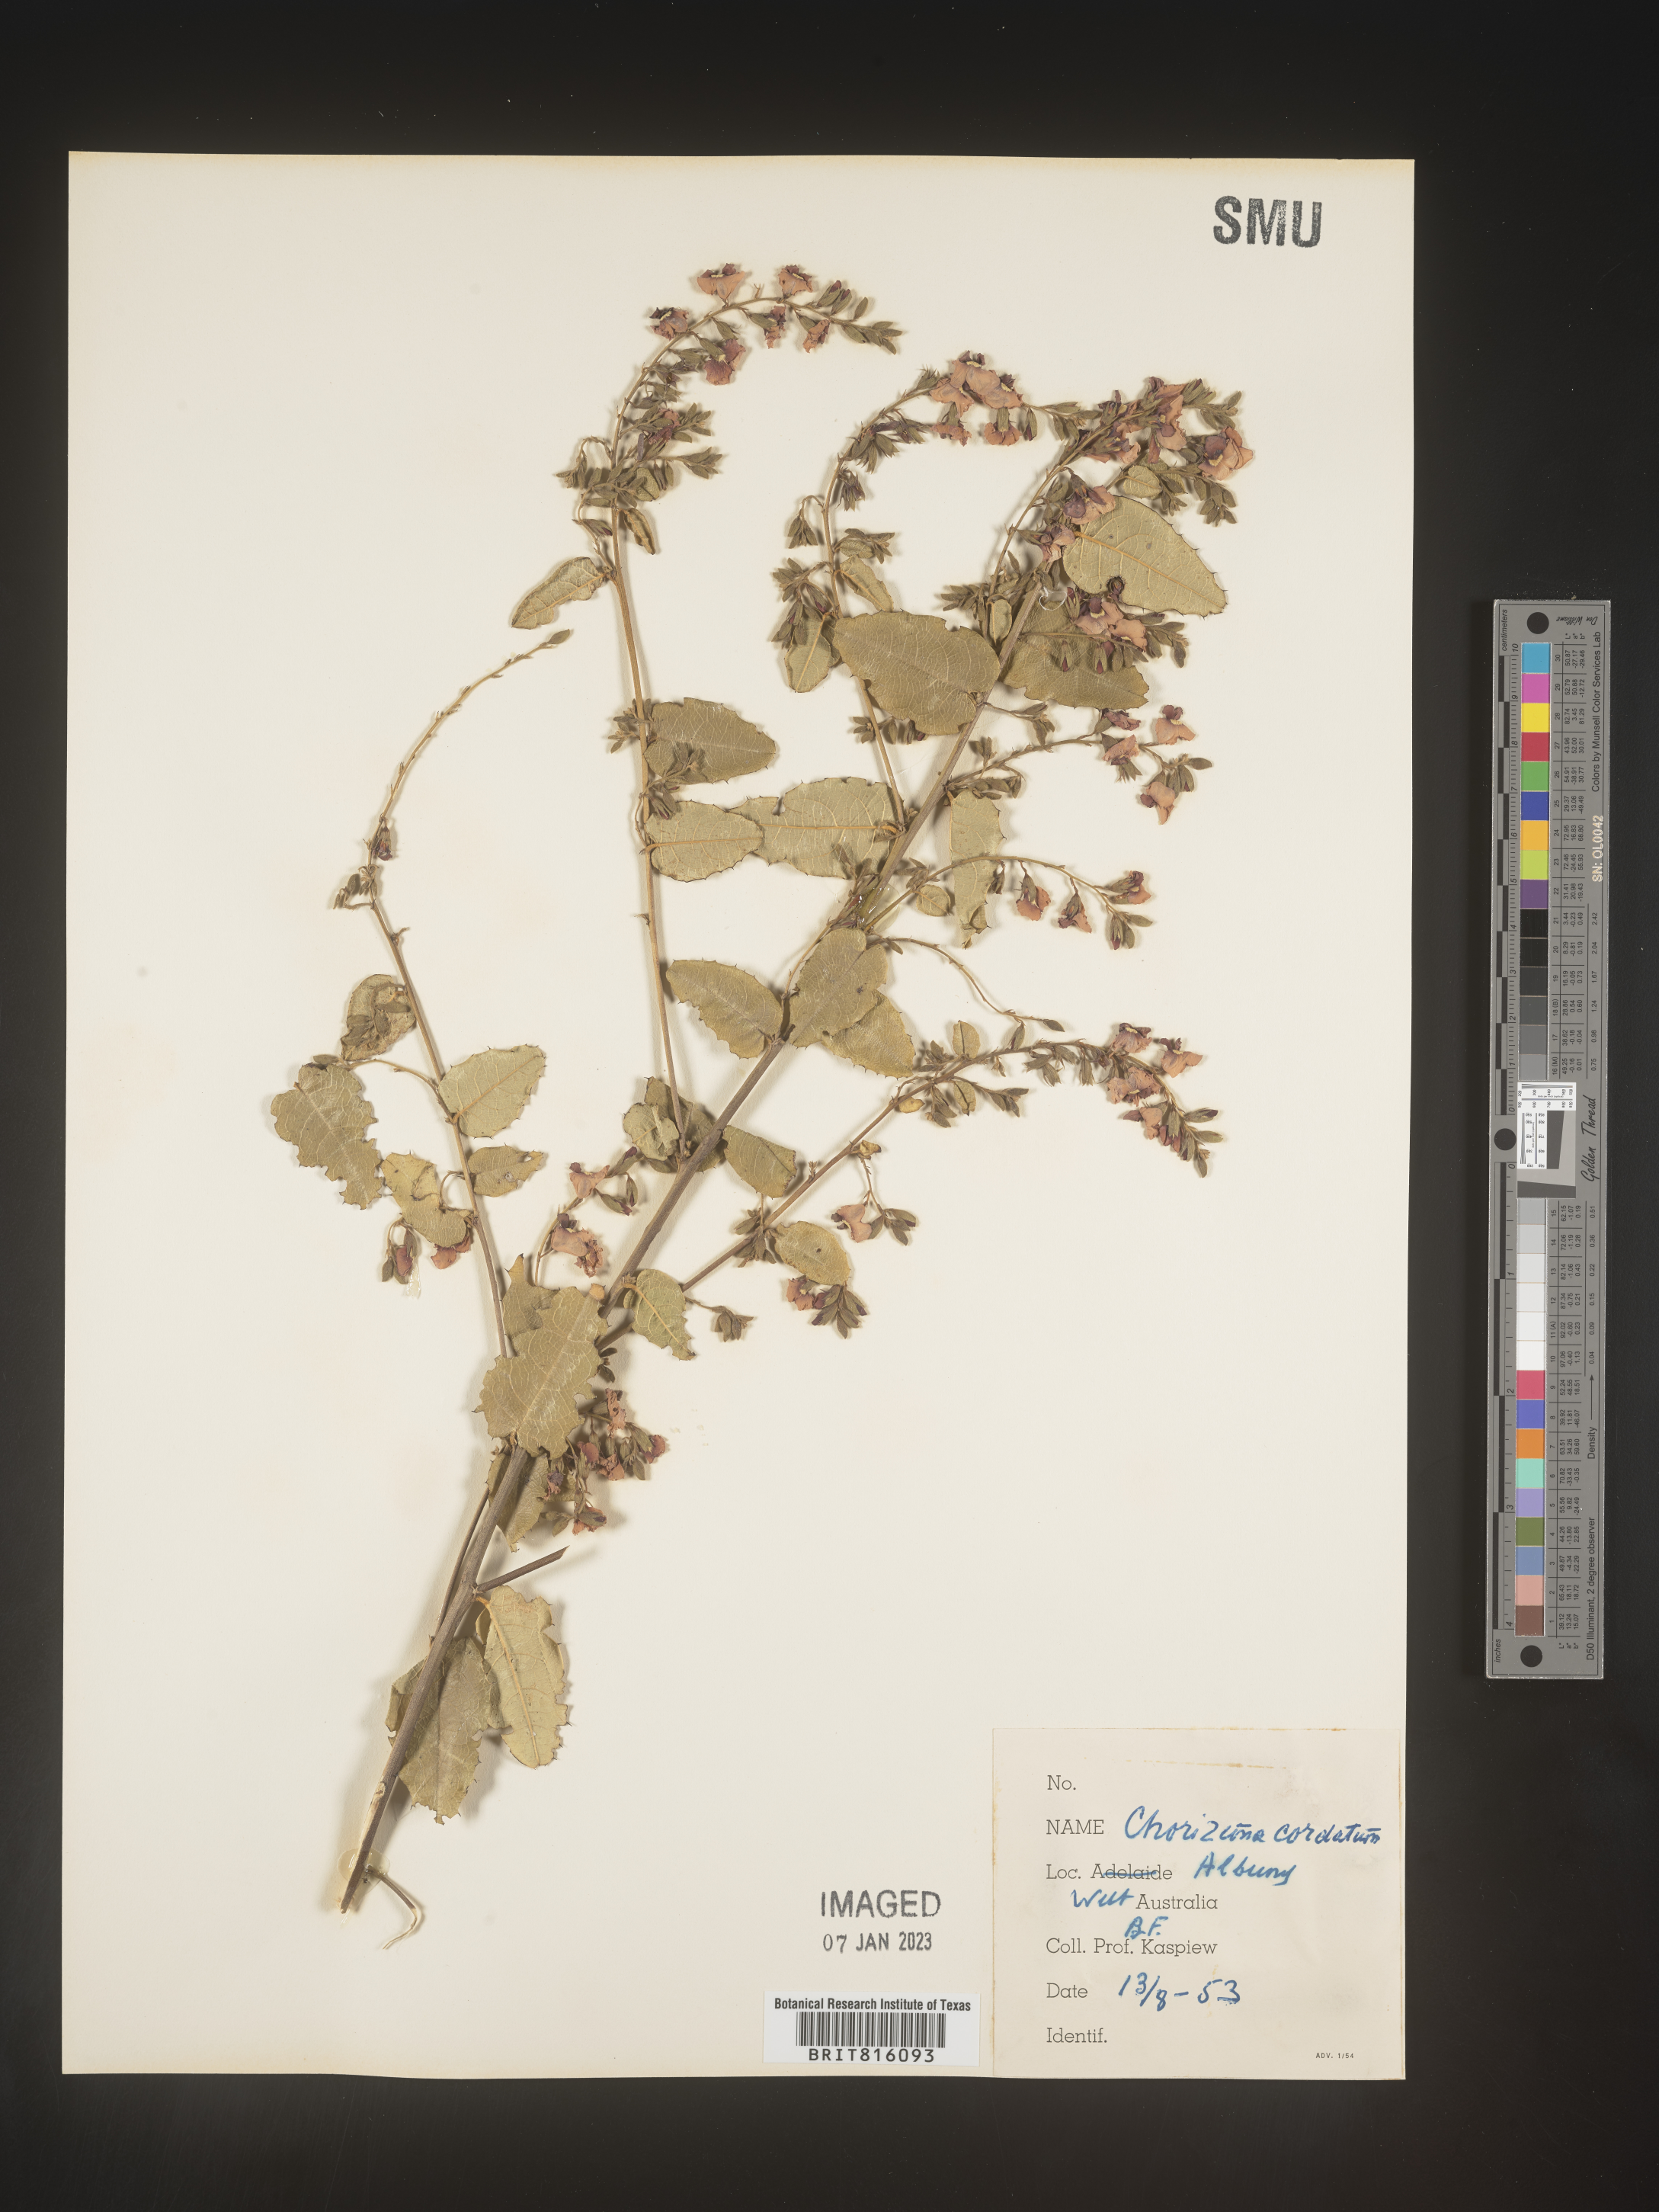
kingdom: Plantae
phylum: Tracheophyta
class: Magnoliopsida
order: Fabales
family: Fabaceae
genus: Chorizema
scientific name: Chorizema
